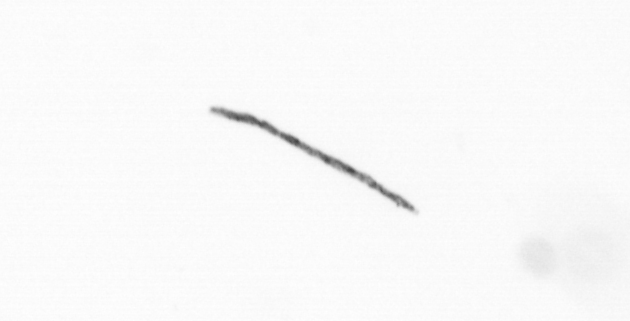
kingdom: Chromista
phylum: Ochrophyta
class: Bacillariophyceae
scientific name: Bacillariophyceae
